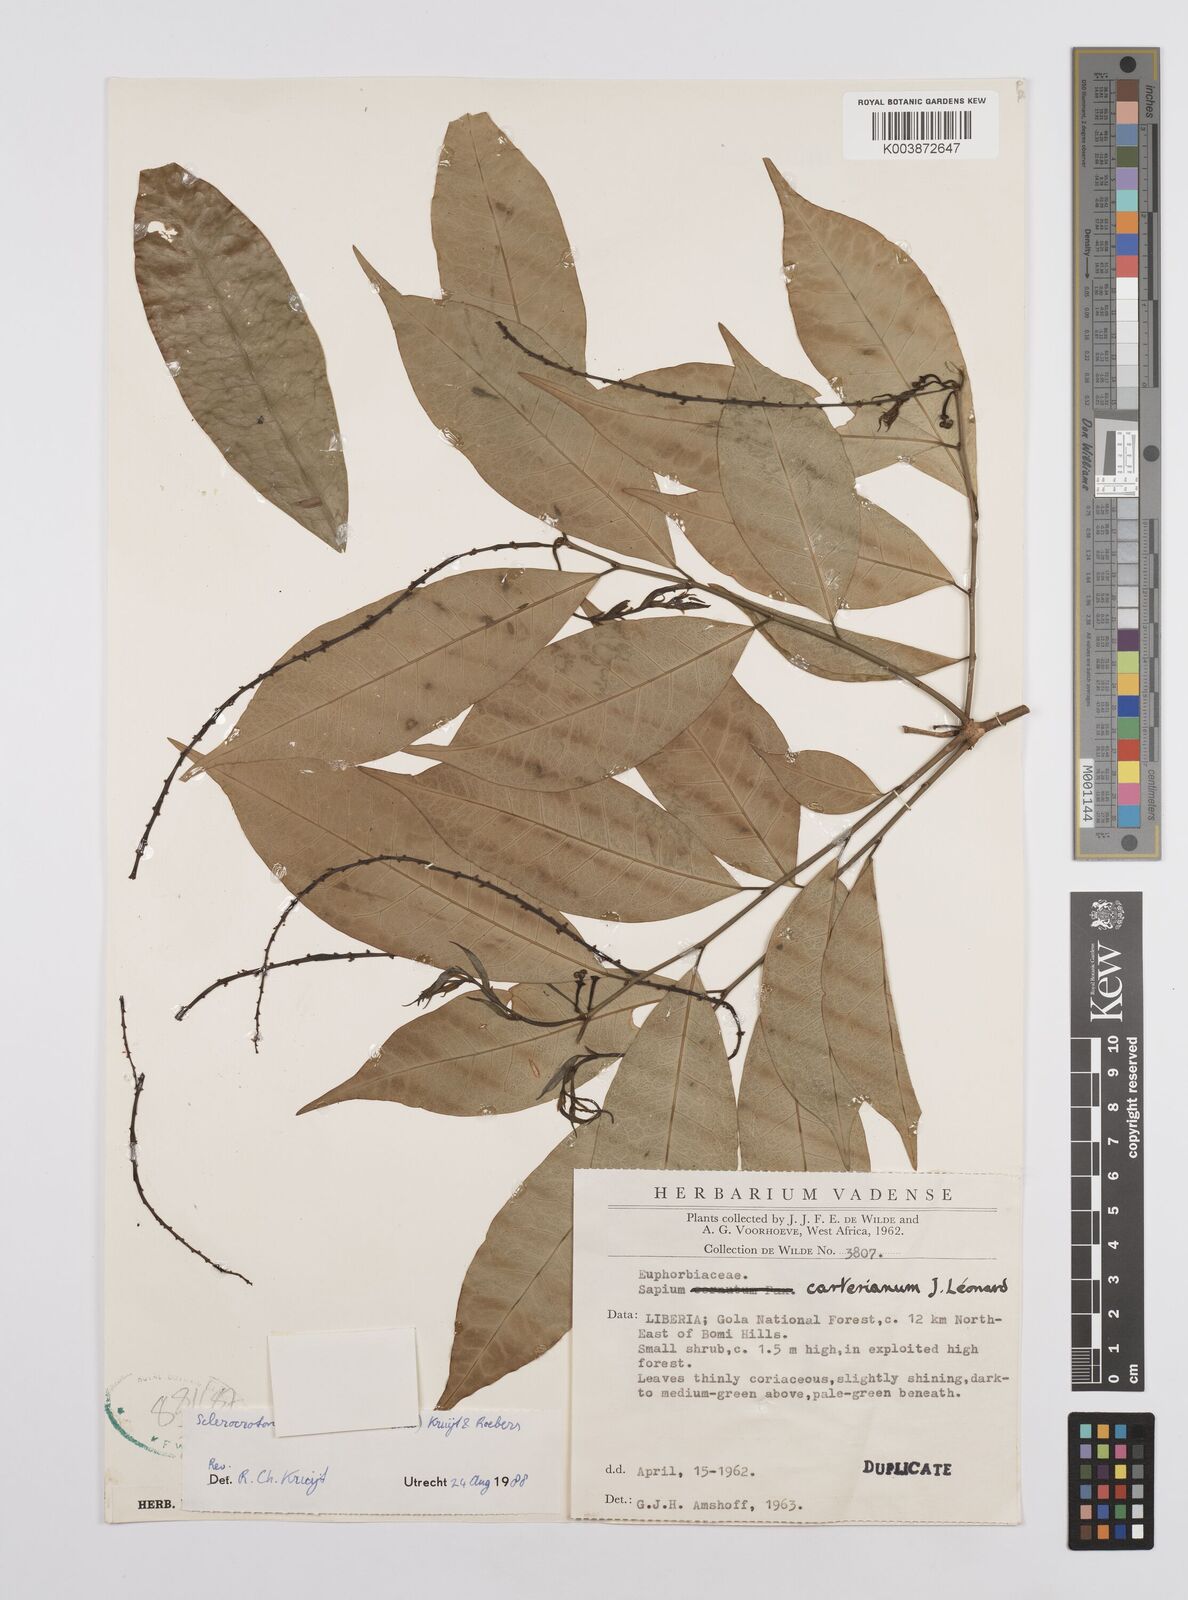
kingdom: Plantae
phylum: Tracheophyta
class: Magnoliopsida
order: Malpighiales
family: Euphorbiaceae
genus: Sclerocroton
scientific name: Sclerocroton carterianus
